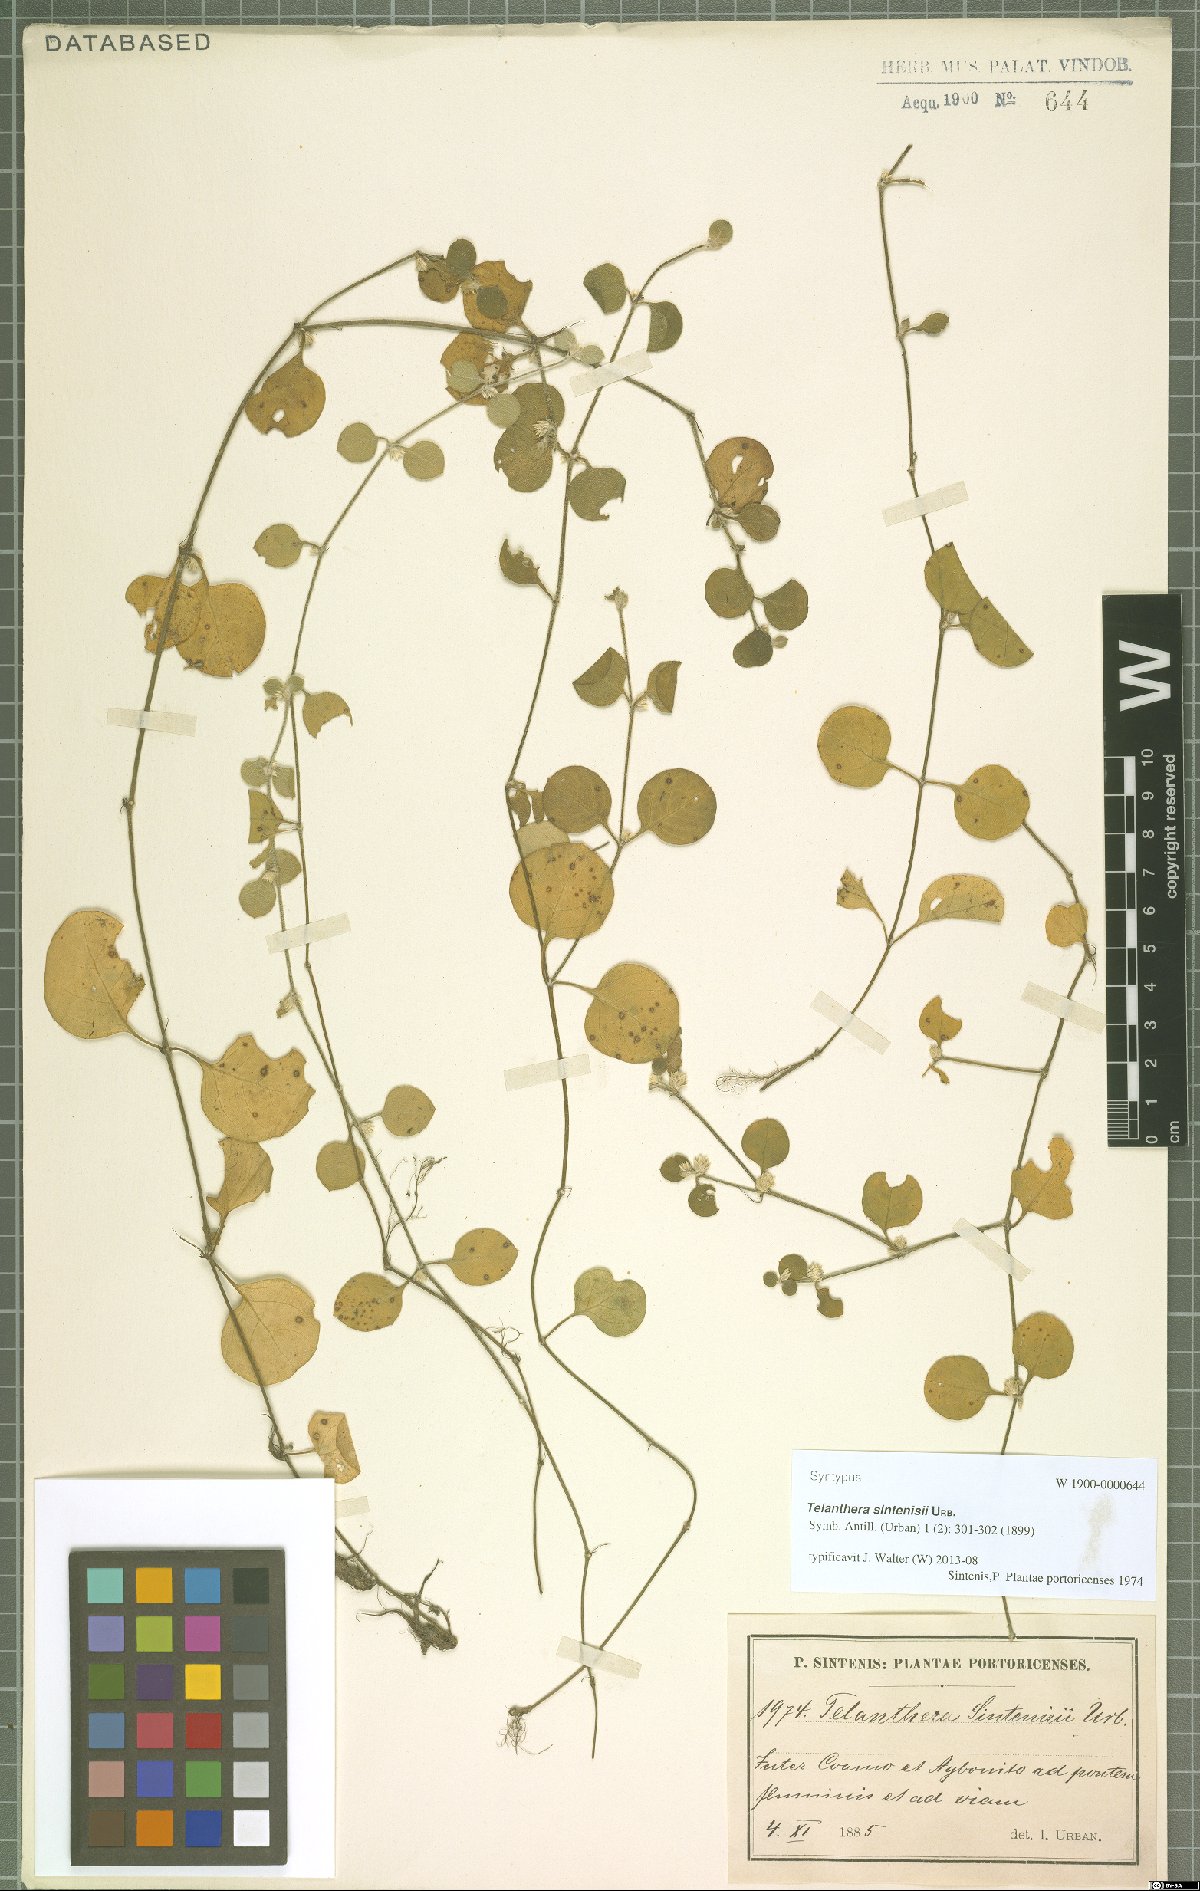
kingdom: Plantae
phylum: Tracheophyta
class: Magnoliopsida
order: Caryophyllales
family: Amaranthaceae
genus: Alternanthera
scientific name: Alternanthera crucis
